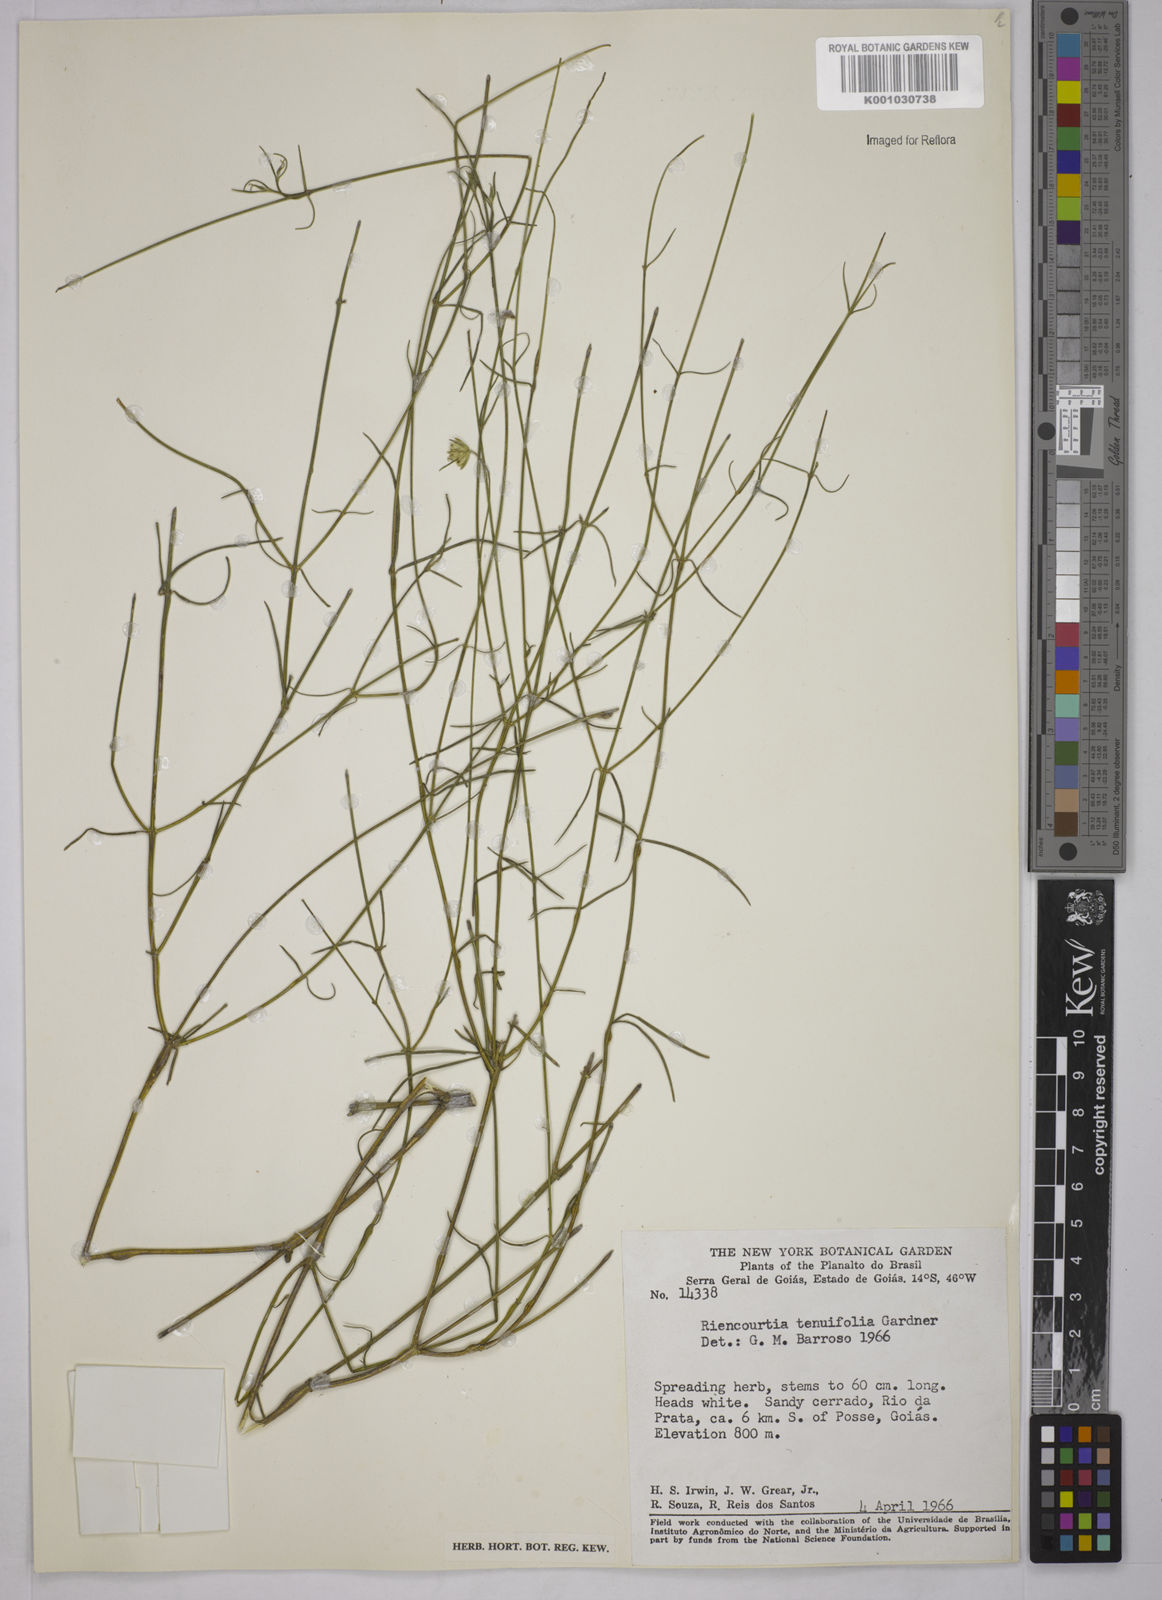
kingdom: Plantae
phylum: Tracheophyta
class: Magnoliopsida
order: Asterales
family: Asteraceae
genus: Riencourtia
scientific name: Riencourtia tenuifolia
